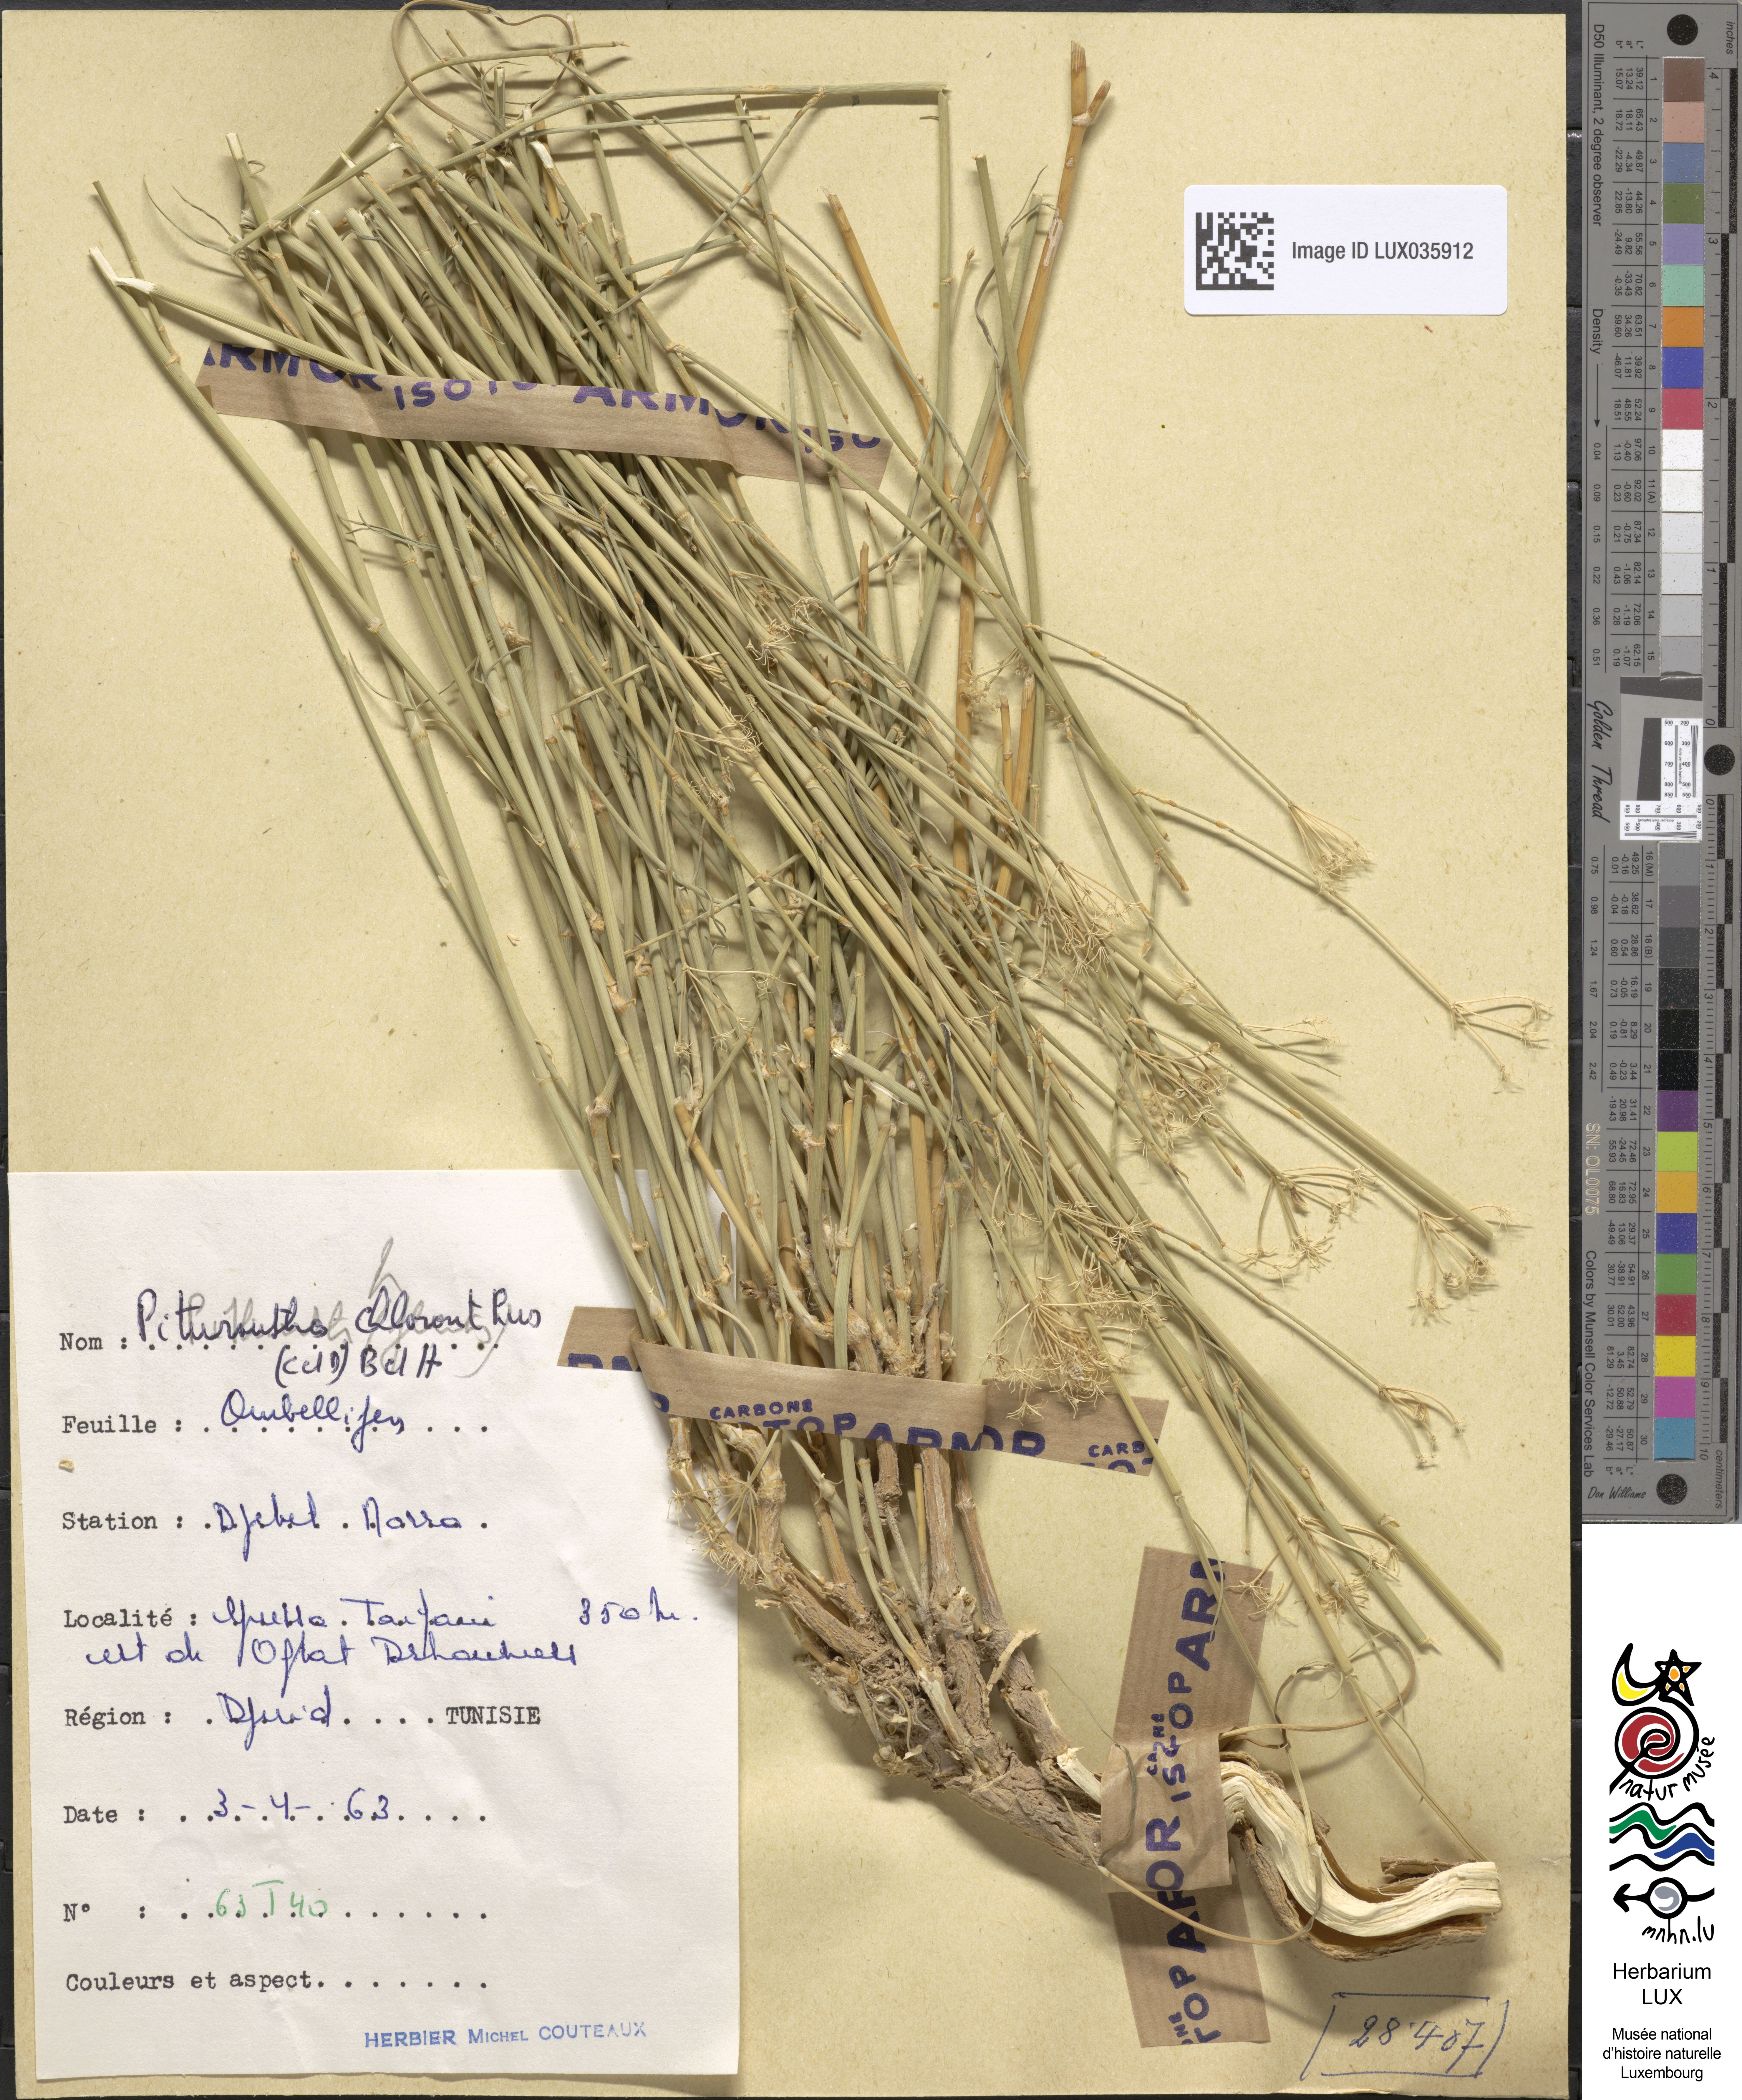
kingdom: Plantae
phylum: Tracheophyta
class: Magnoliopsida
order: Apiales
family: Apiaceae
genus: Deverra
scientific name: Deverra
